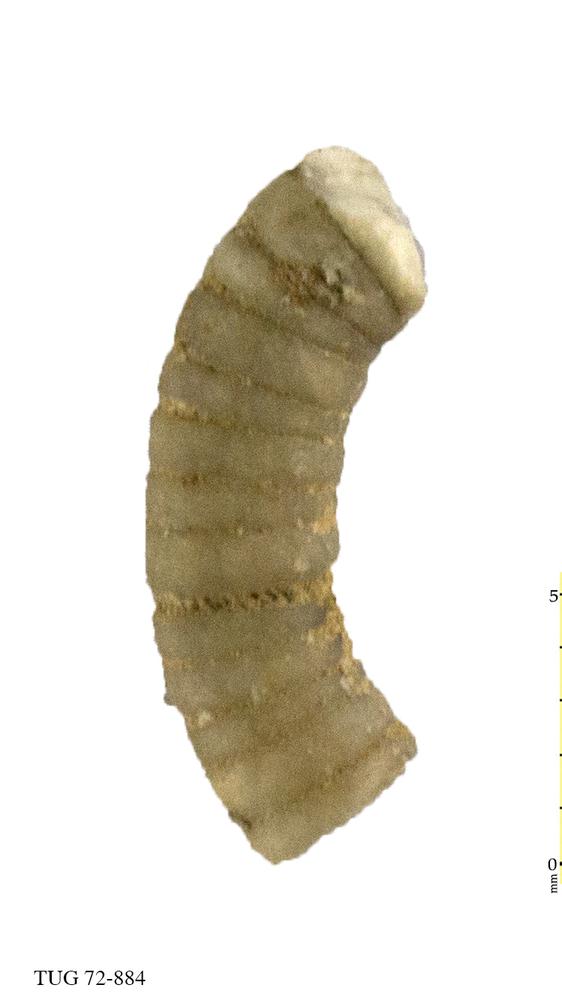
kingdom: Animalia
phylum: Echinodermata
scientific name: Echinodermata
